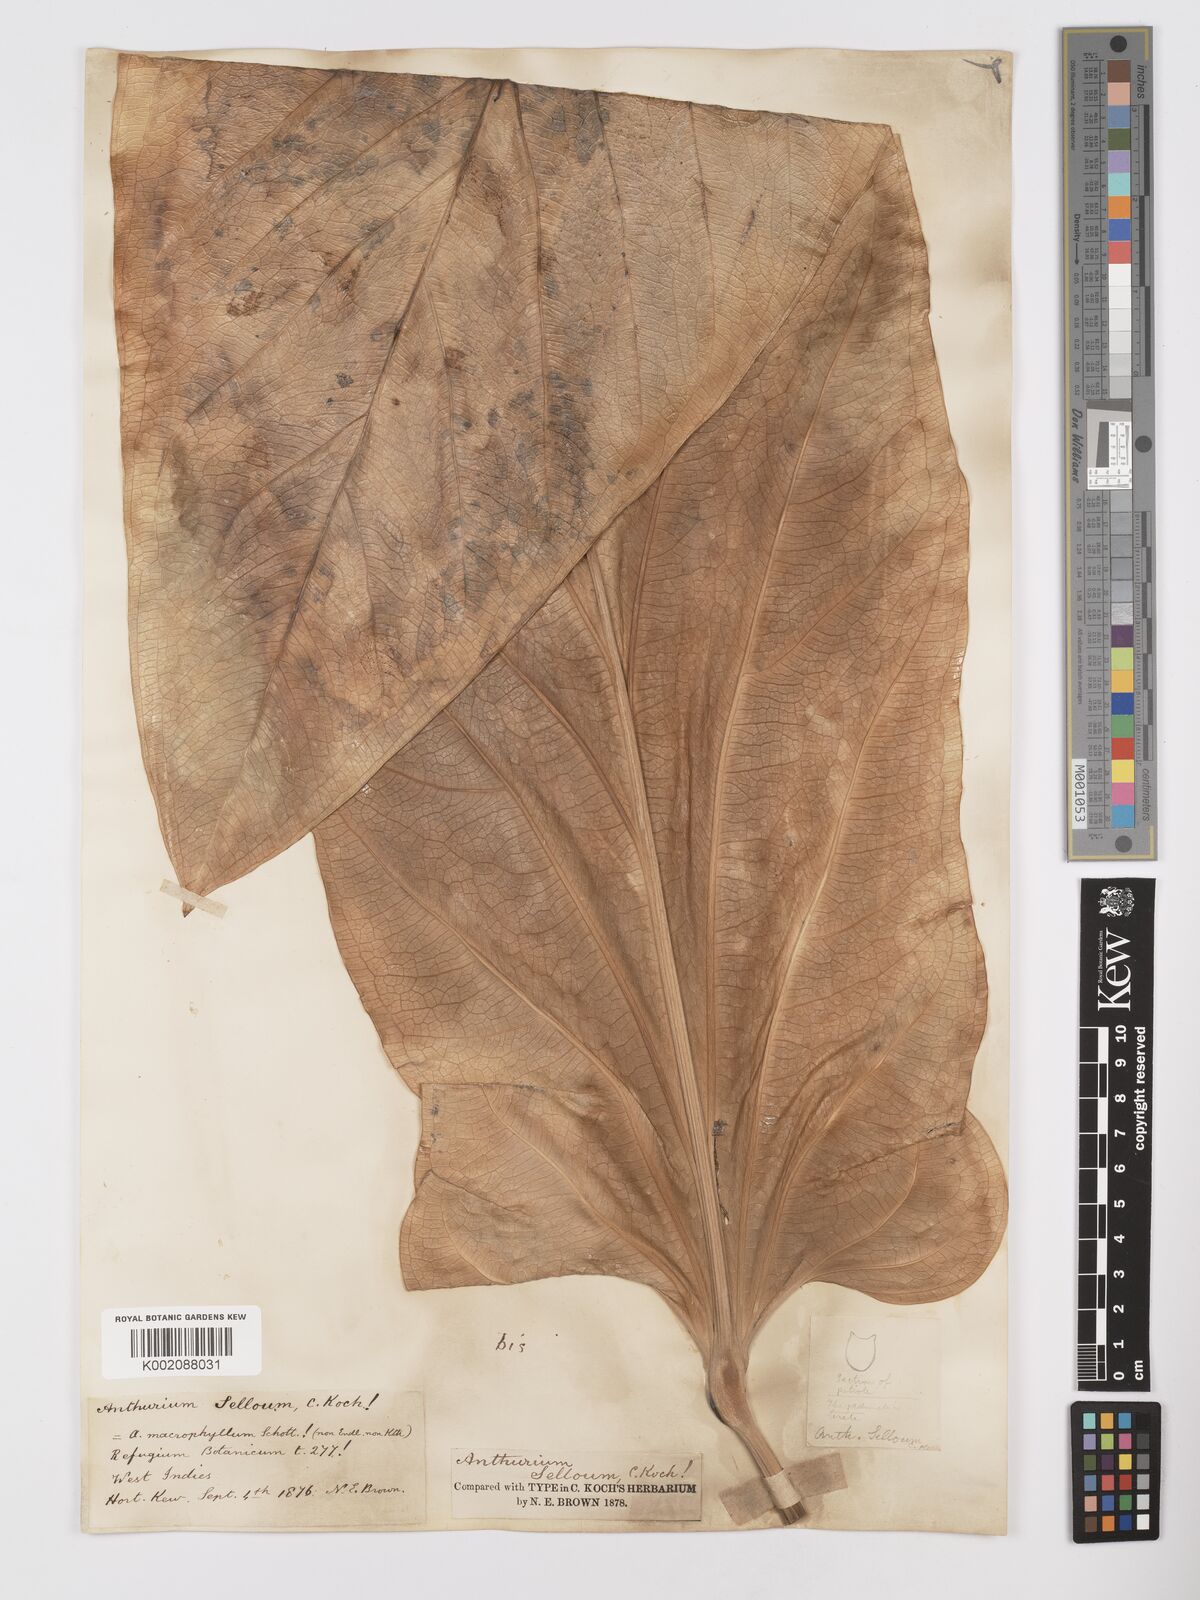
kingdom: Plantae
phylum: Tracheophyta
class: Liliopsida
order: Alismatales
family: Araceae
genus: Anthurium
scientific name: Anthurium
